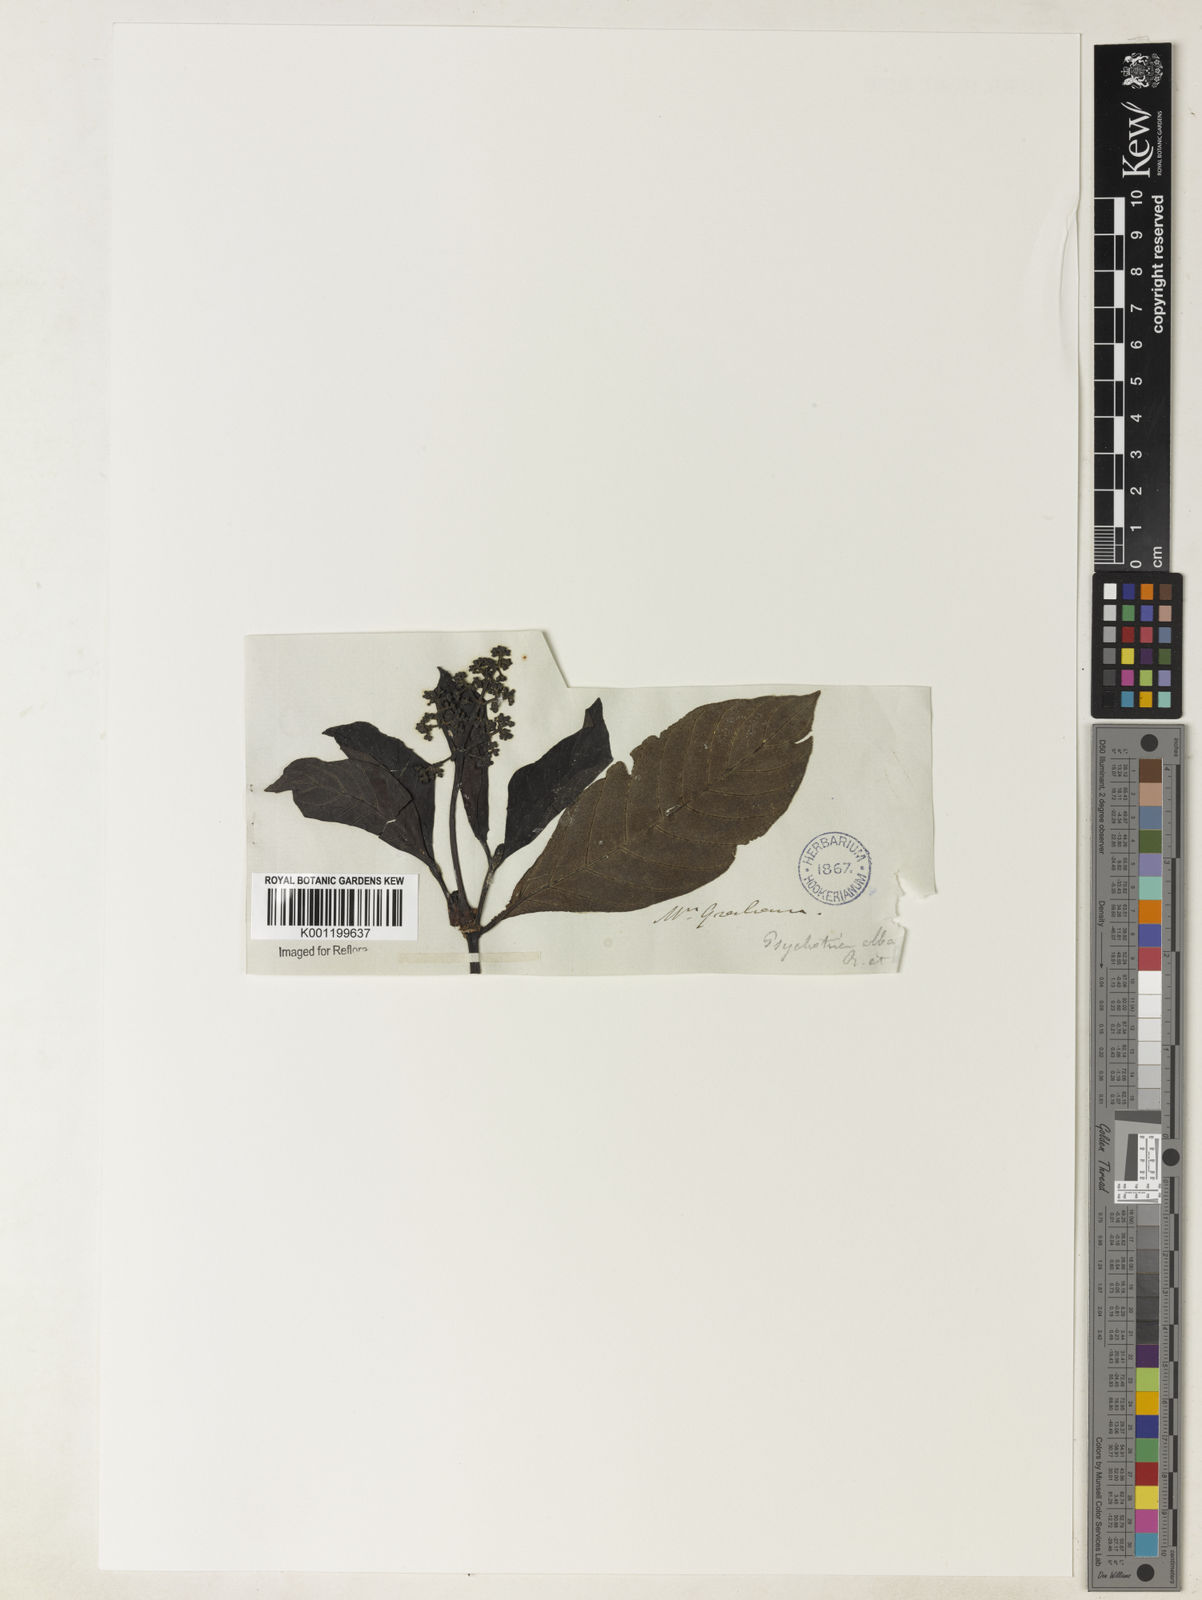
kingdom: Plantae
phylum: Tracheophyta
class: Magnoliopsida
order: Gentianales
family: Rubiaceae
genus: Psychotria
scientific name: Psychotria carthagenensis
